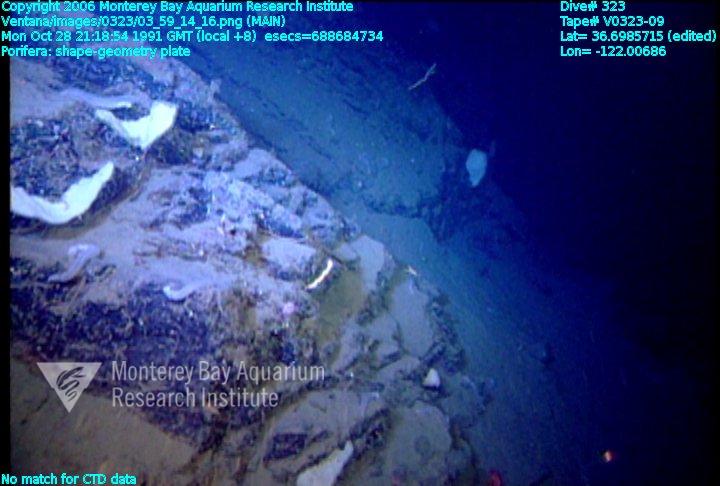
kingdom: Animalia
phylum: Porifera
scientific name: Porifera
